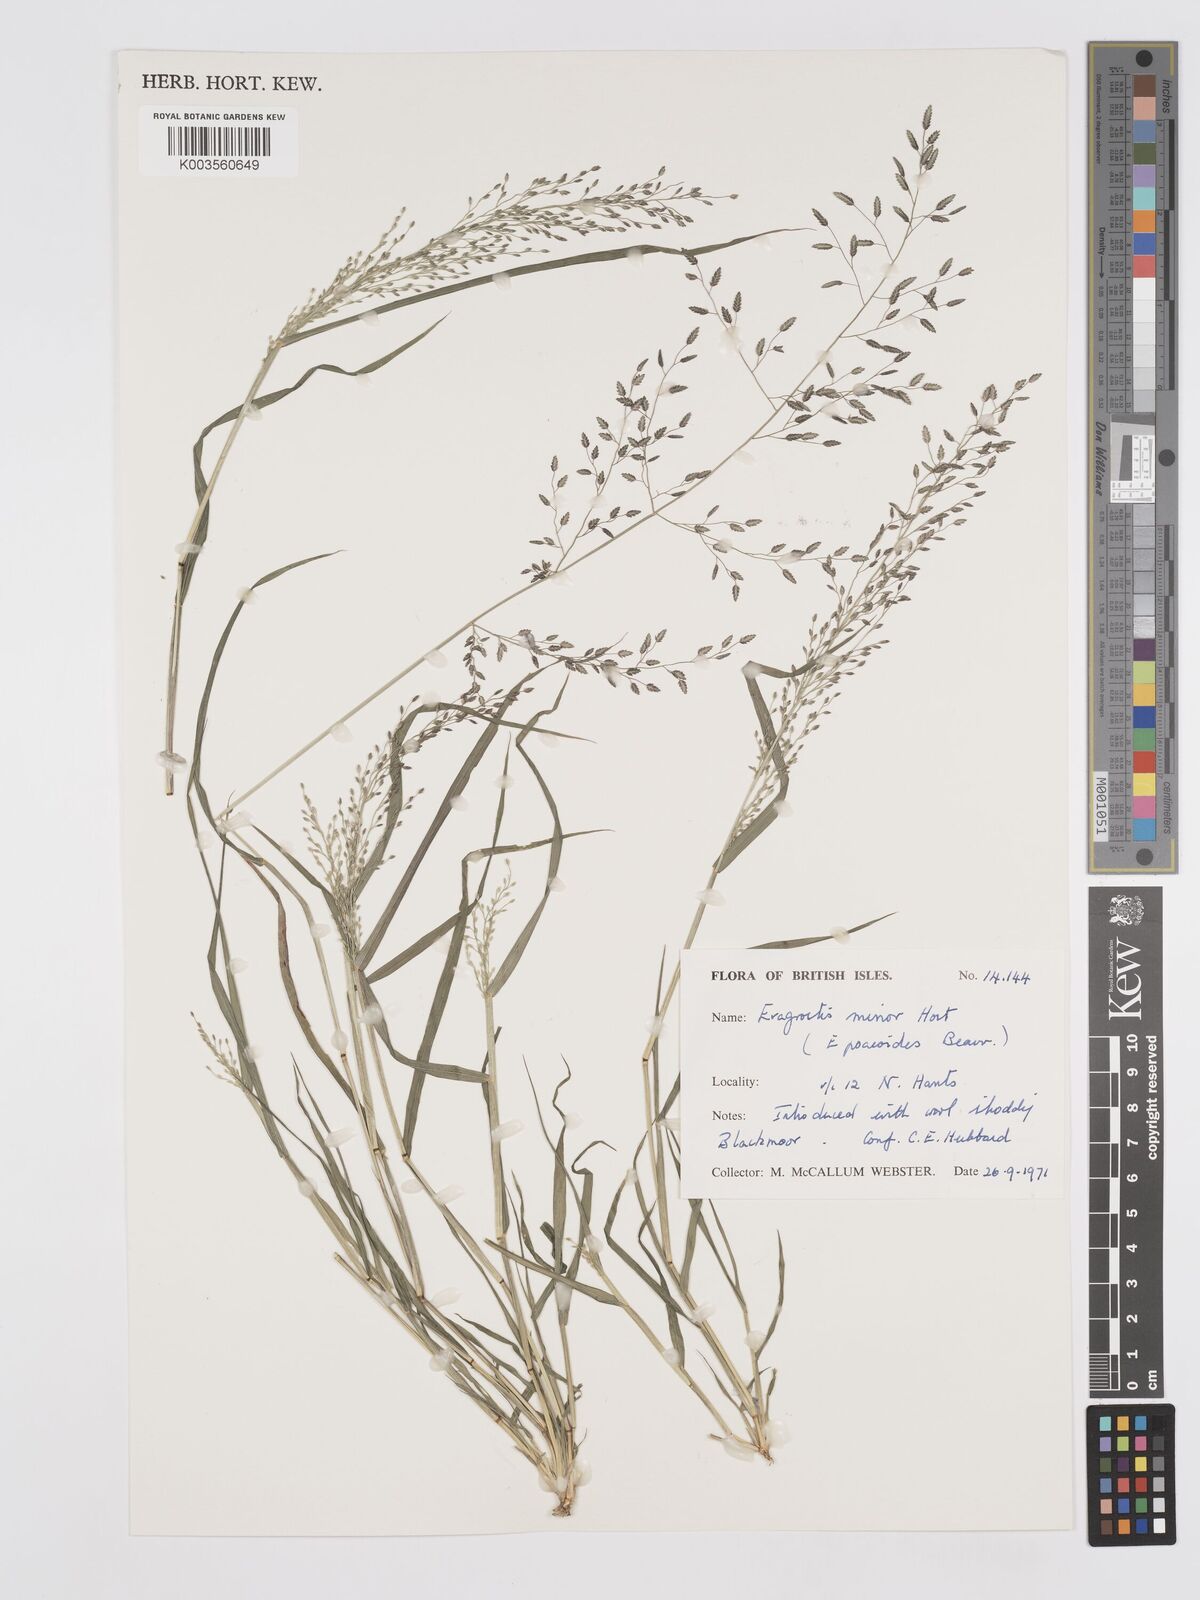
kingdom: Plantae
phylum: Tracheophyta
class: Liliopsida
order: Poales
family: Poaceae
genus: Eragrostis
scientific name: Eragrostis minor
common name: Small love-grass
